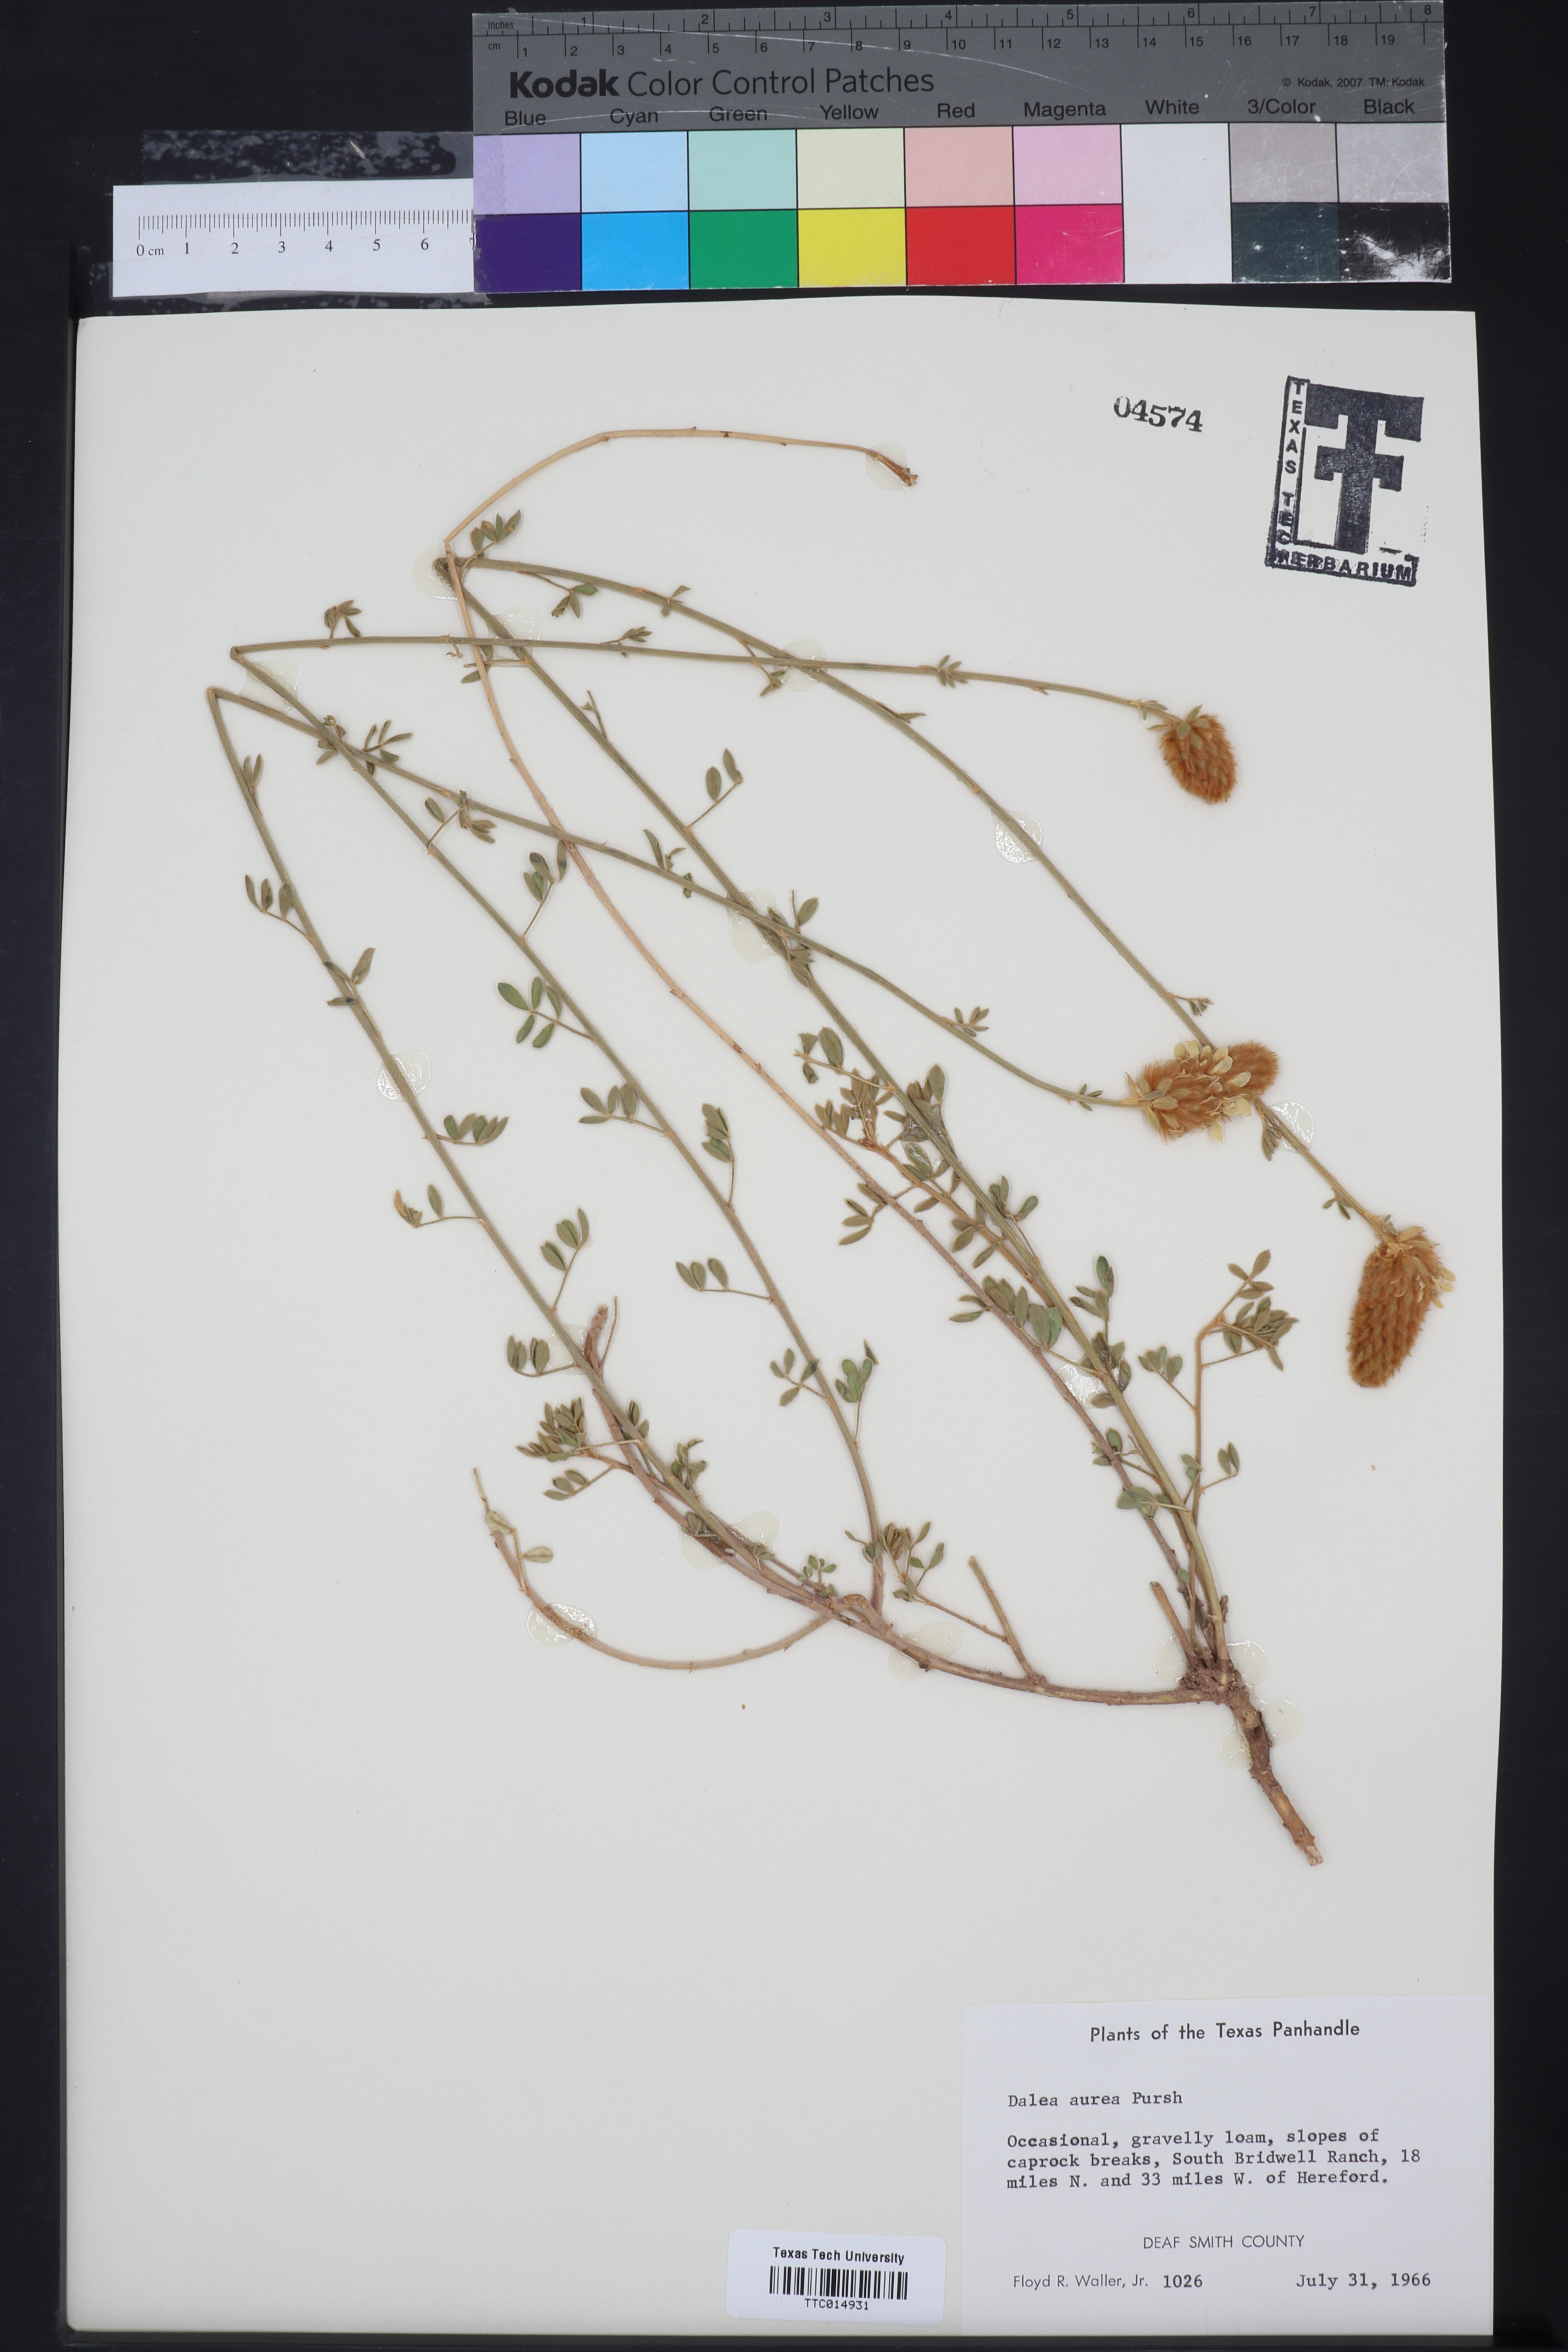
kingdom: Plantae
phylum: Tracheophyta
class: Magnoliopsida
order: Fabales
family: Fabaceae
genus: Dalea
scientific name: Dalea aurea
